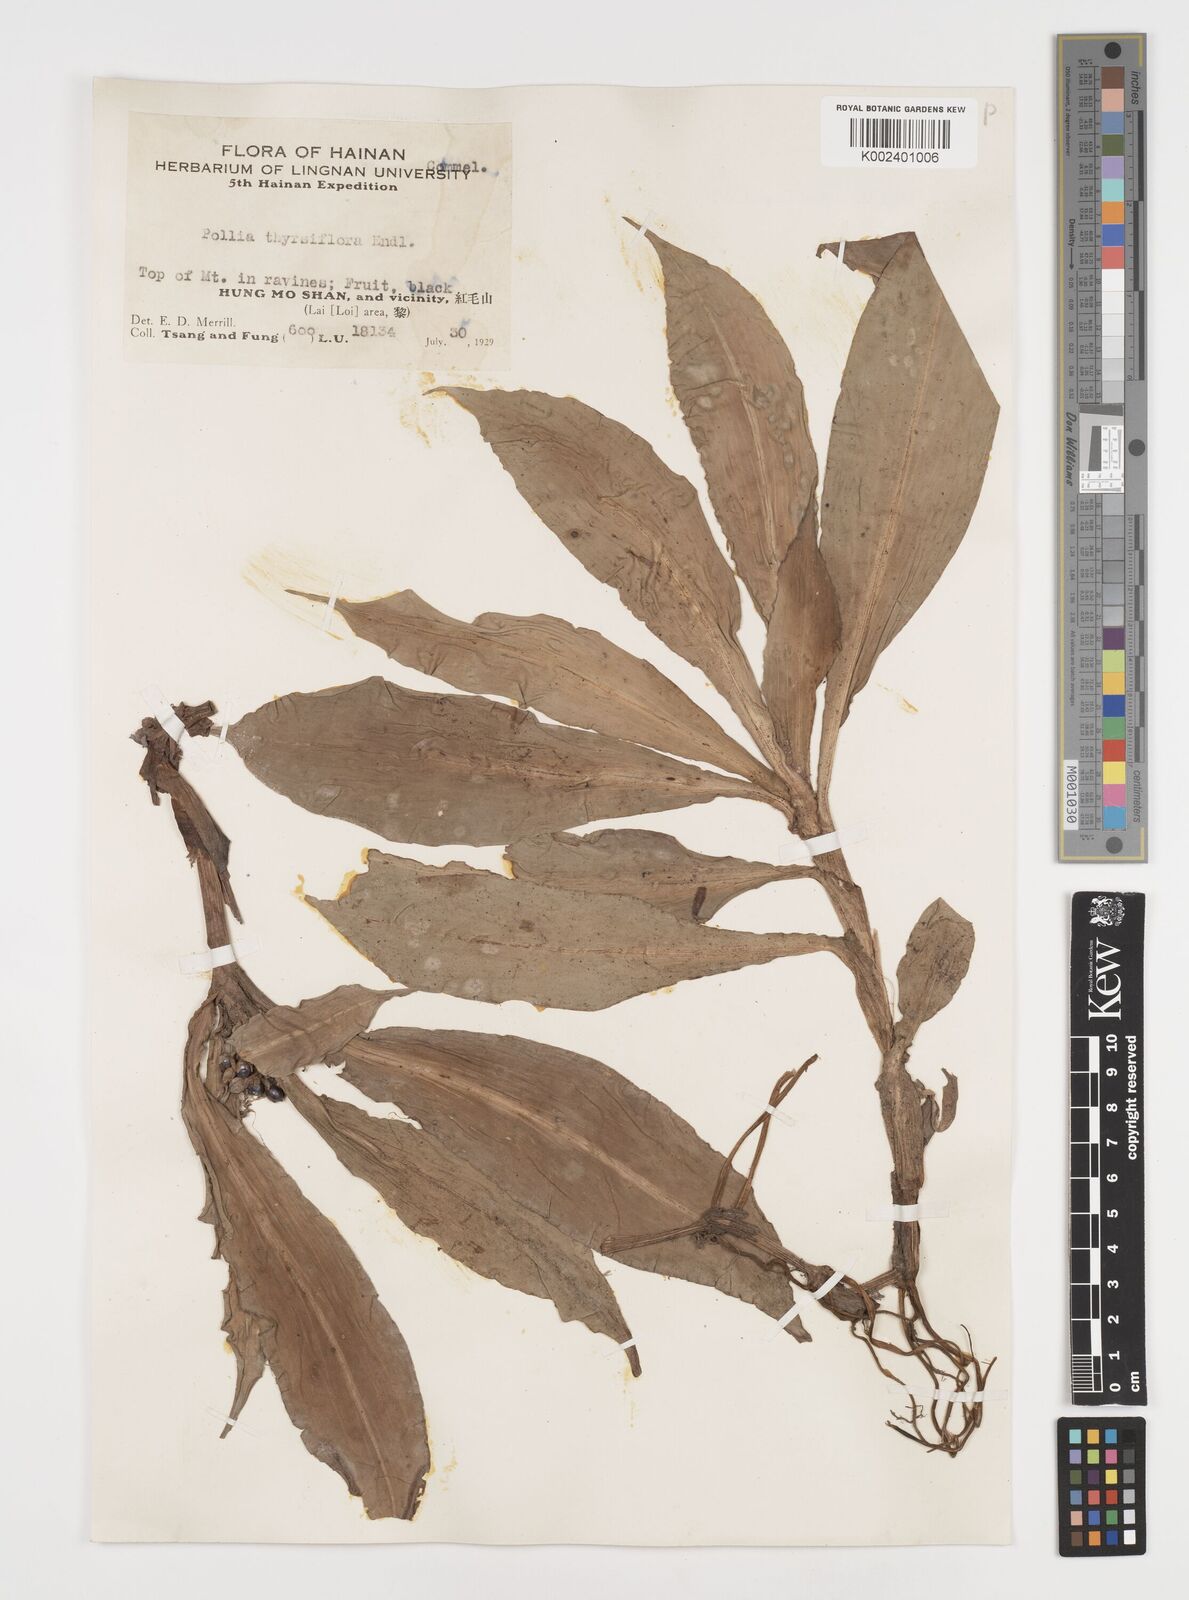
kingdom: Plantae
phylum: Tracheophyta
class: Liliopsida
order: Commelinales
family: Commelinaceae
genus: Pollia
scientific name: Pollia thyrsiflora
